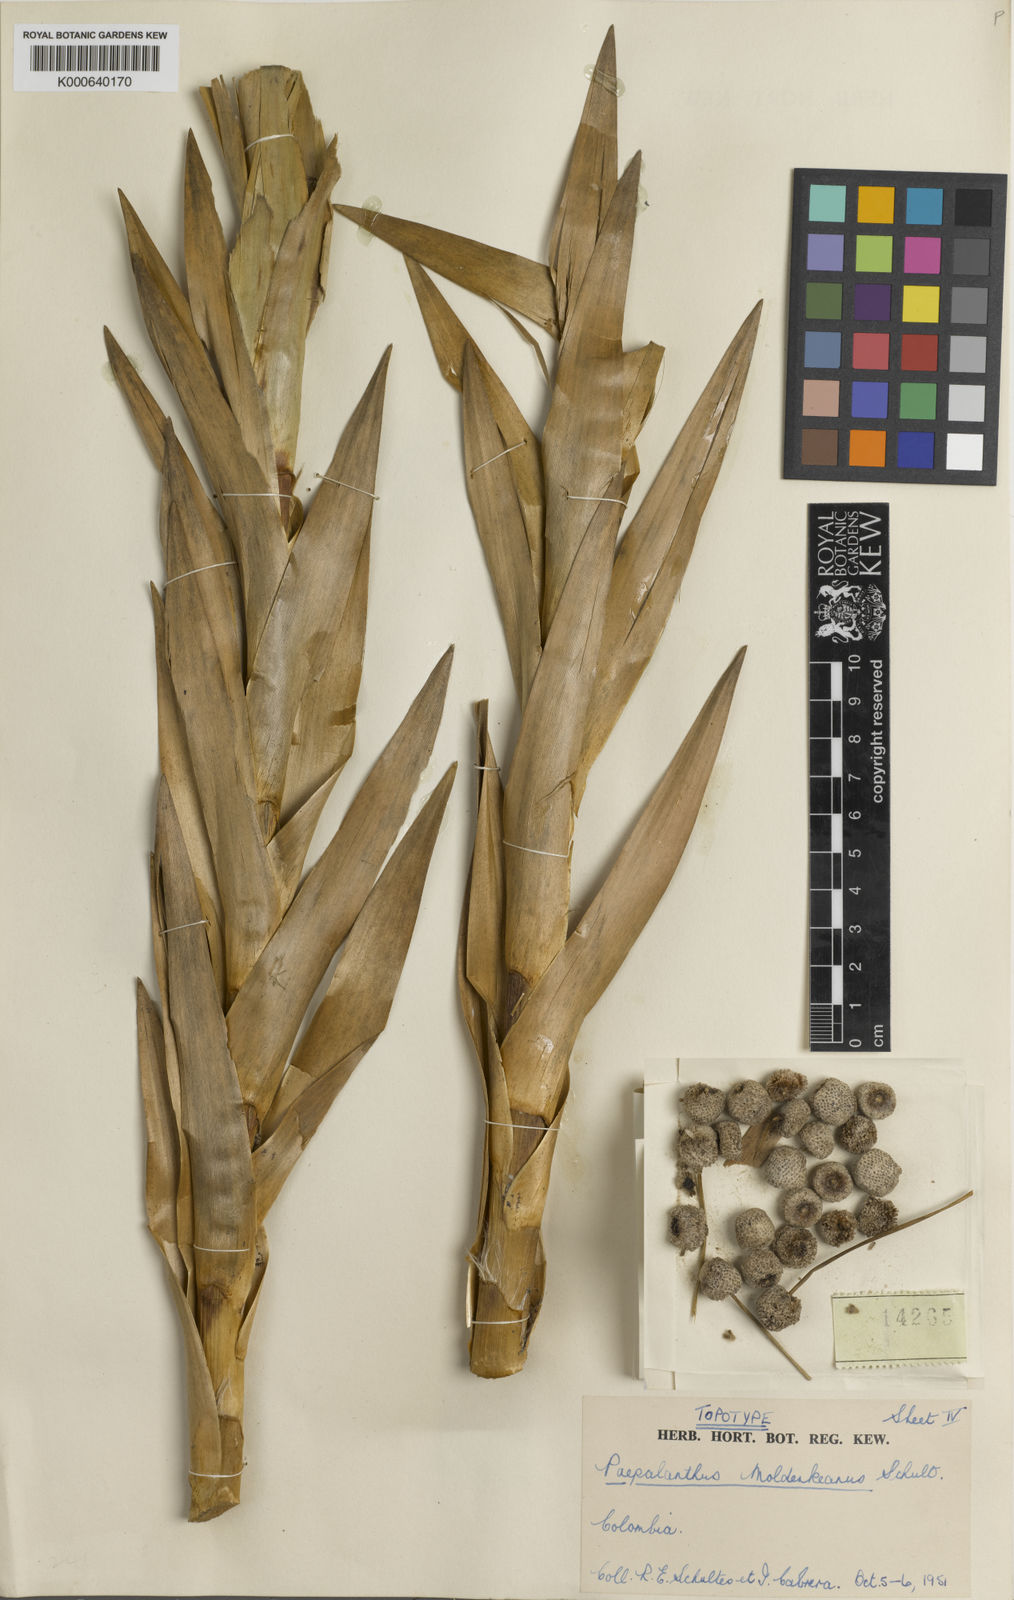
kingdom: Plantae
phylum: Tracheophyta
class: Liliopsida
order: Poales
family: Eriocaulaceae
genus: Paepalanthus
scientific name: Paepalanthus chiquitensis
